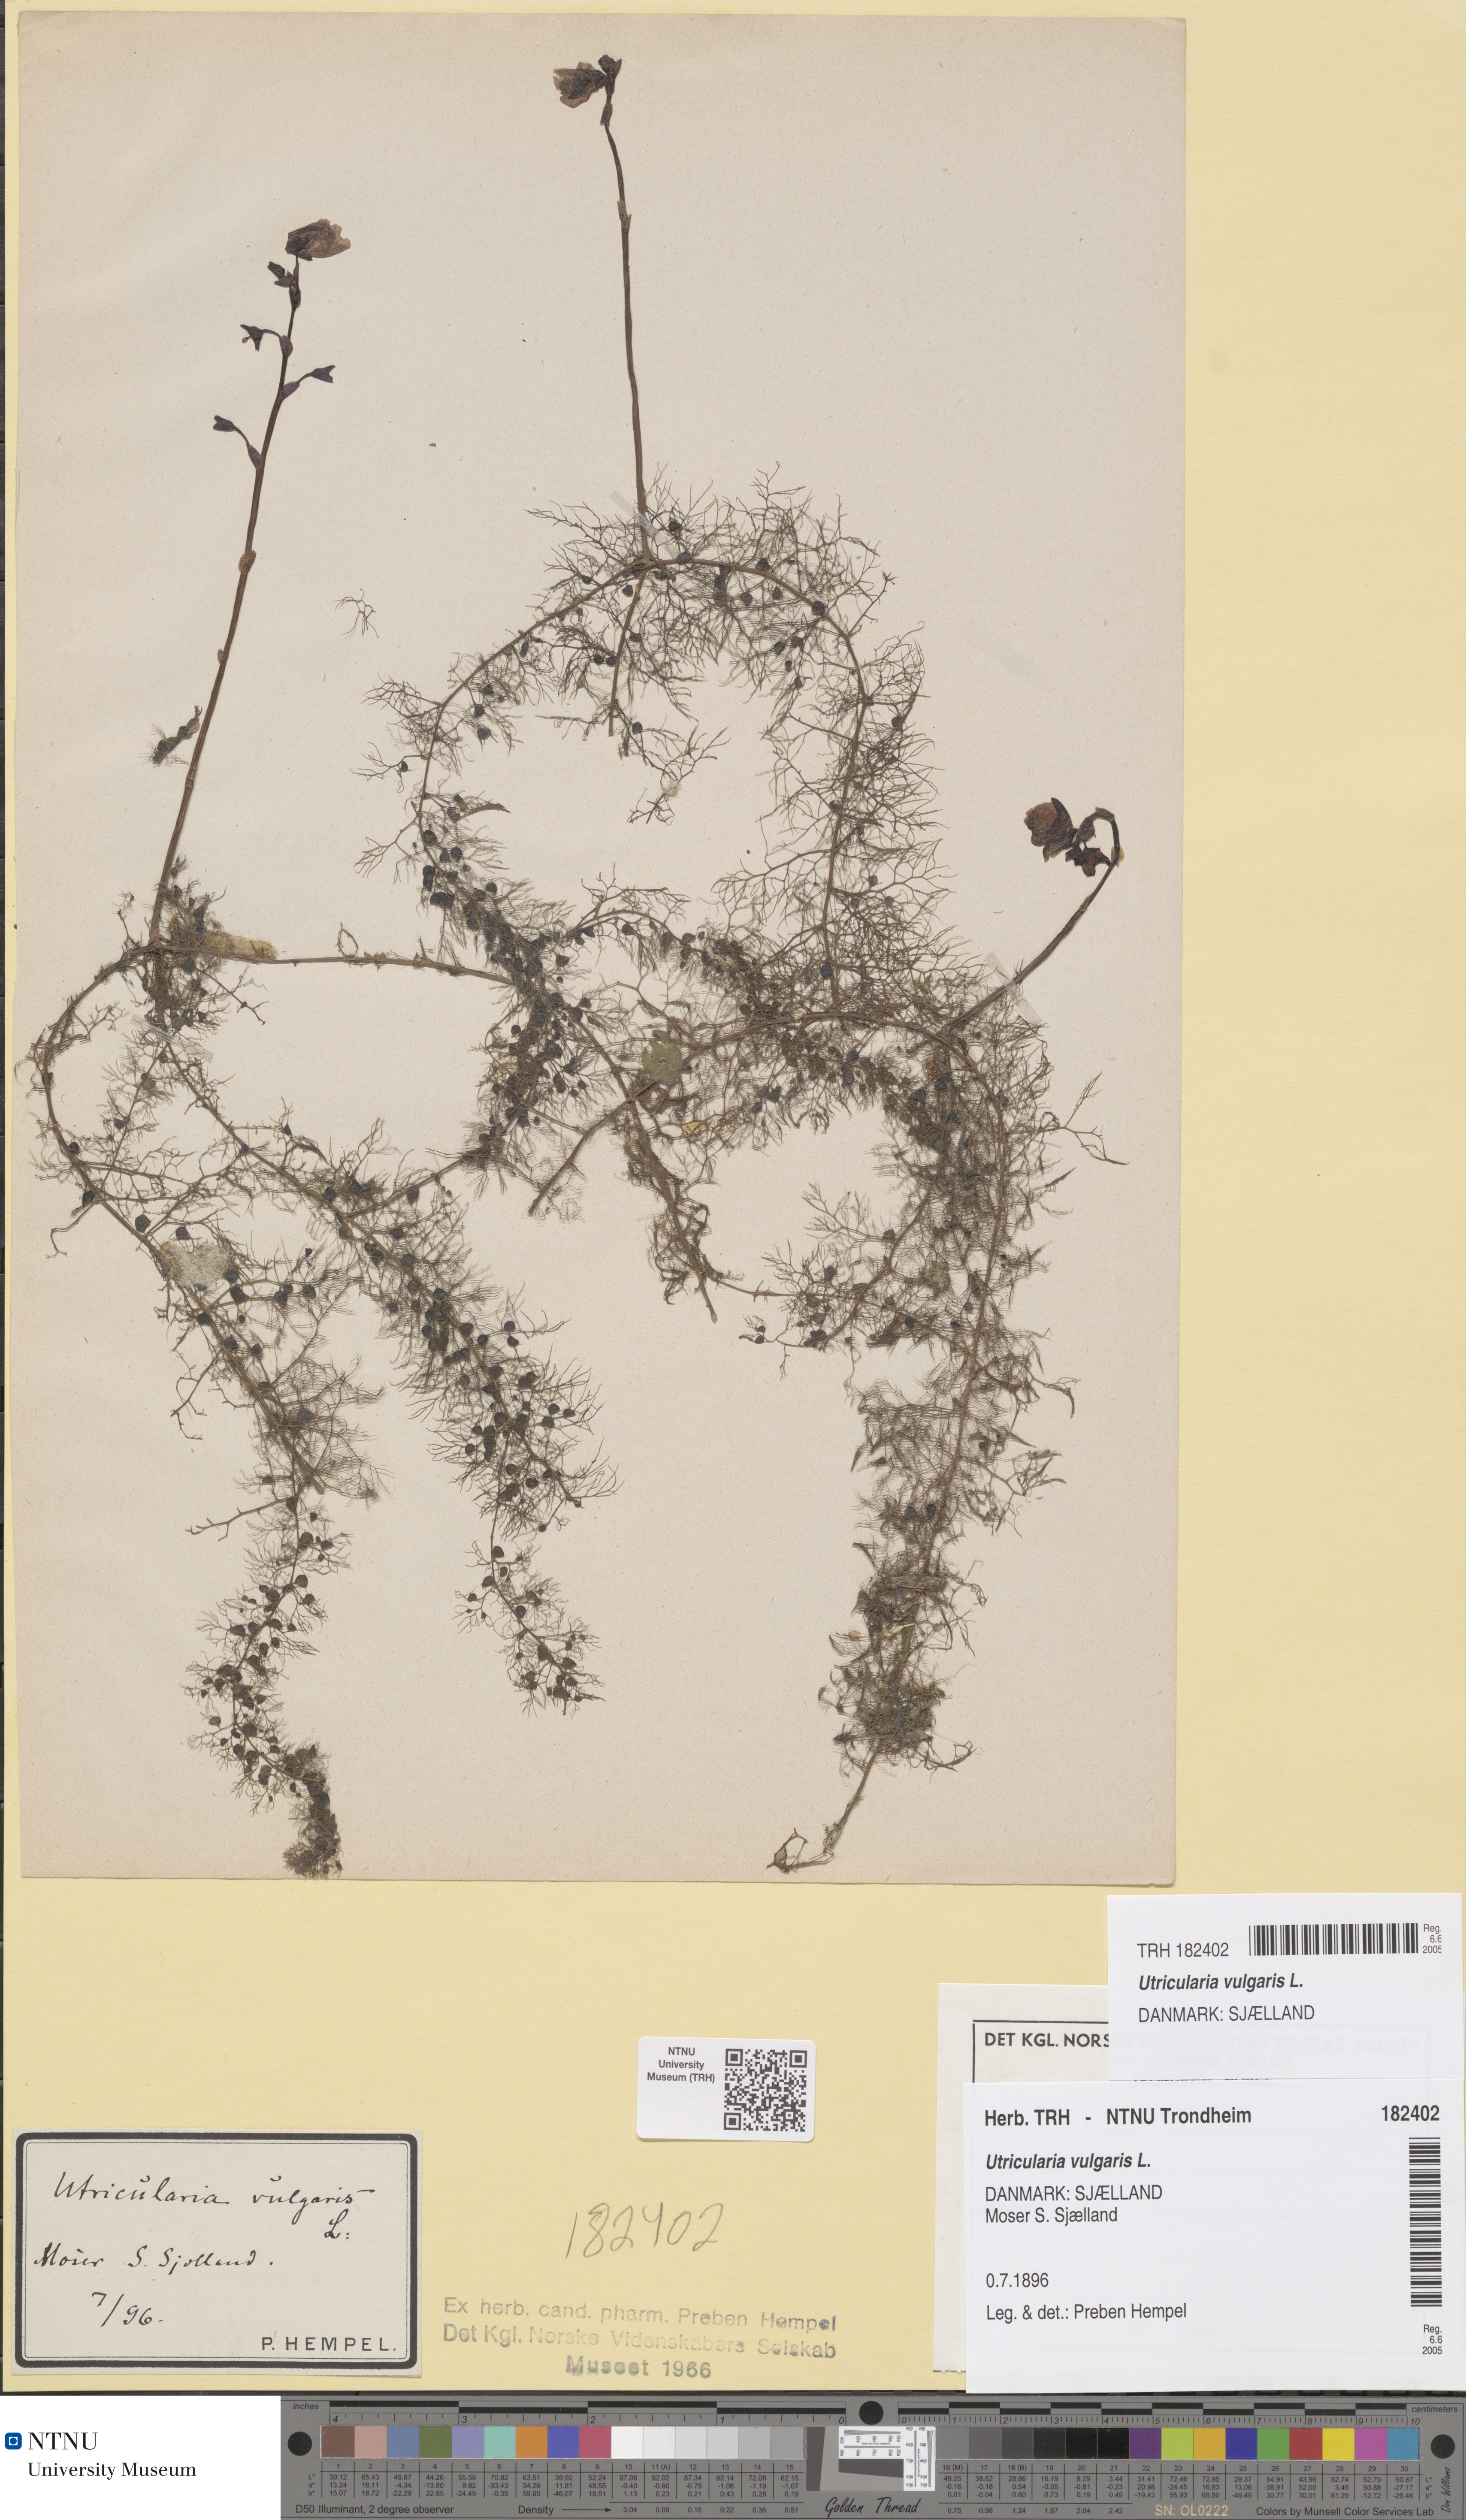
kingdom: Plantae
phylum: Tracheophyta
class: Magnoliopsida
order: Lamiales
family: Lentibulariaceae
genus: Utricularia
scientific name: Utricularia vulgaris
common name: Greater bladderwort
